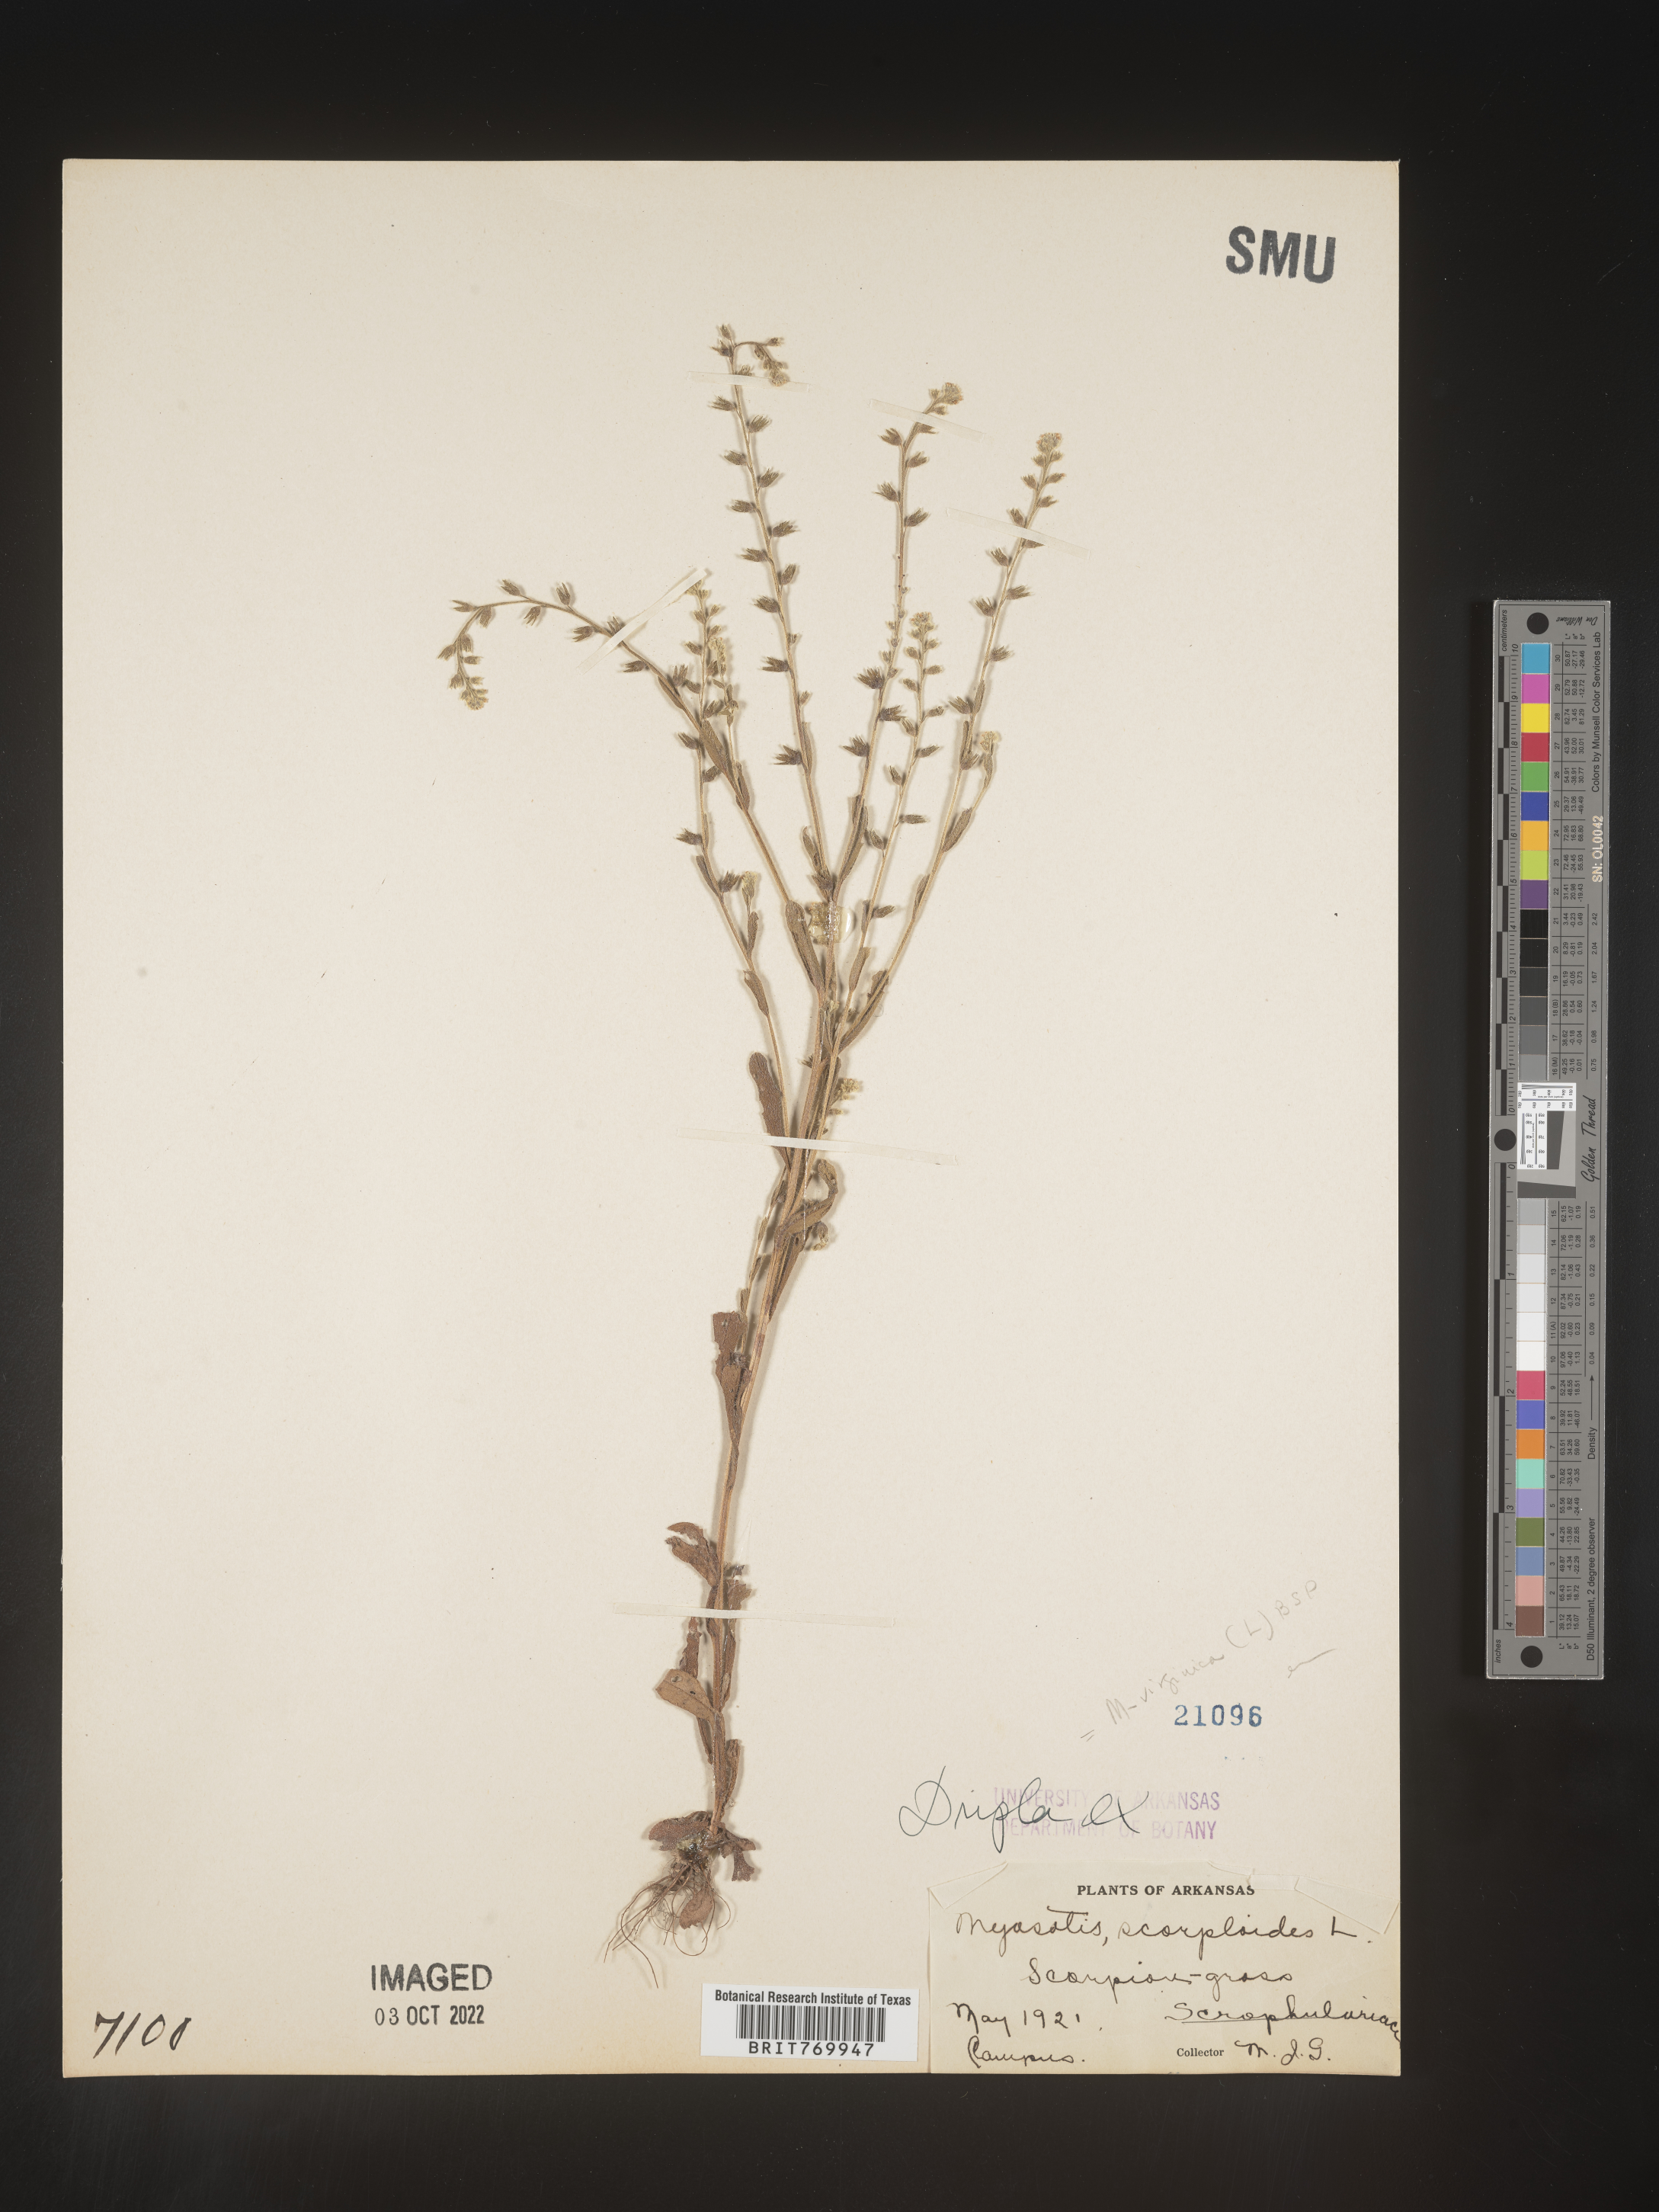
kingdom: Plantae
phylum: Tracheophyta
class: Magnoliopsida
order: Boraginales
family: Boraginaceae
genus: Myosotis
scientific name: Myosotis verna
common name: Early forget-me-not
